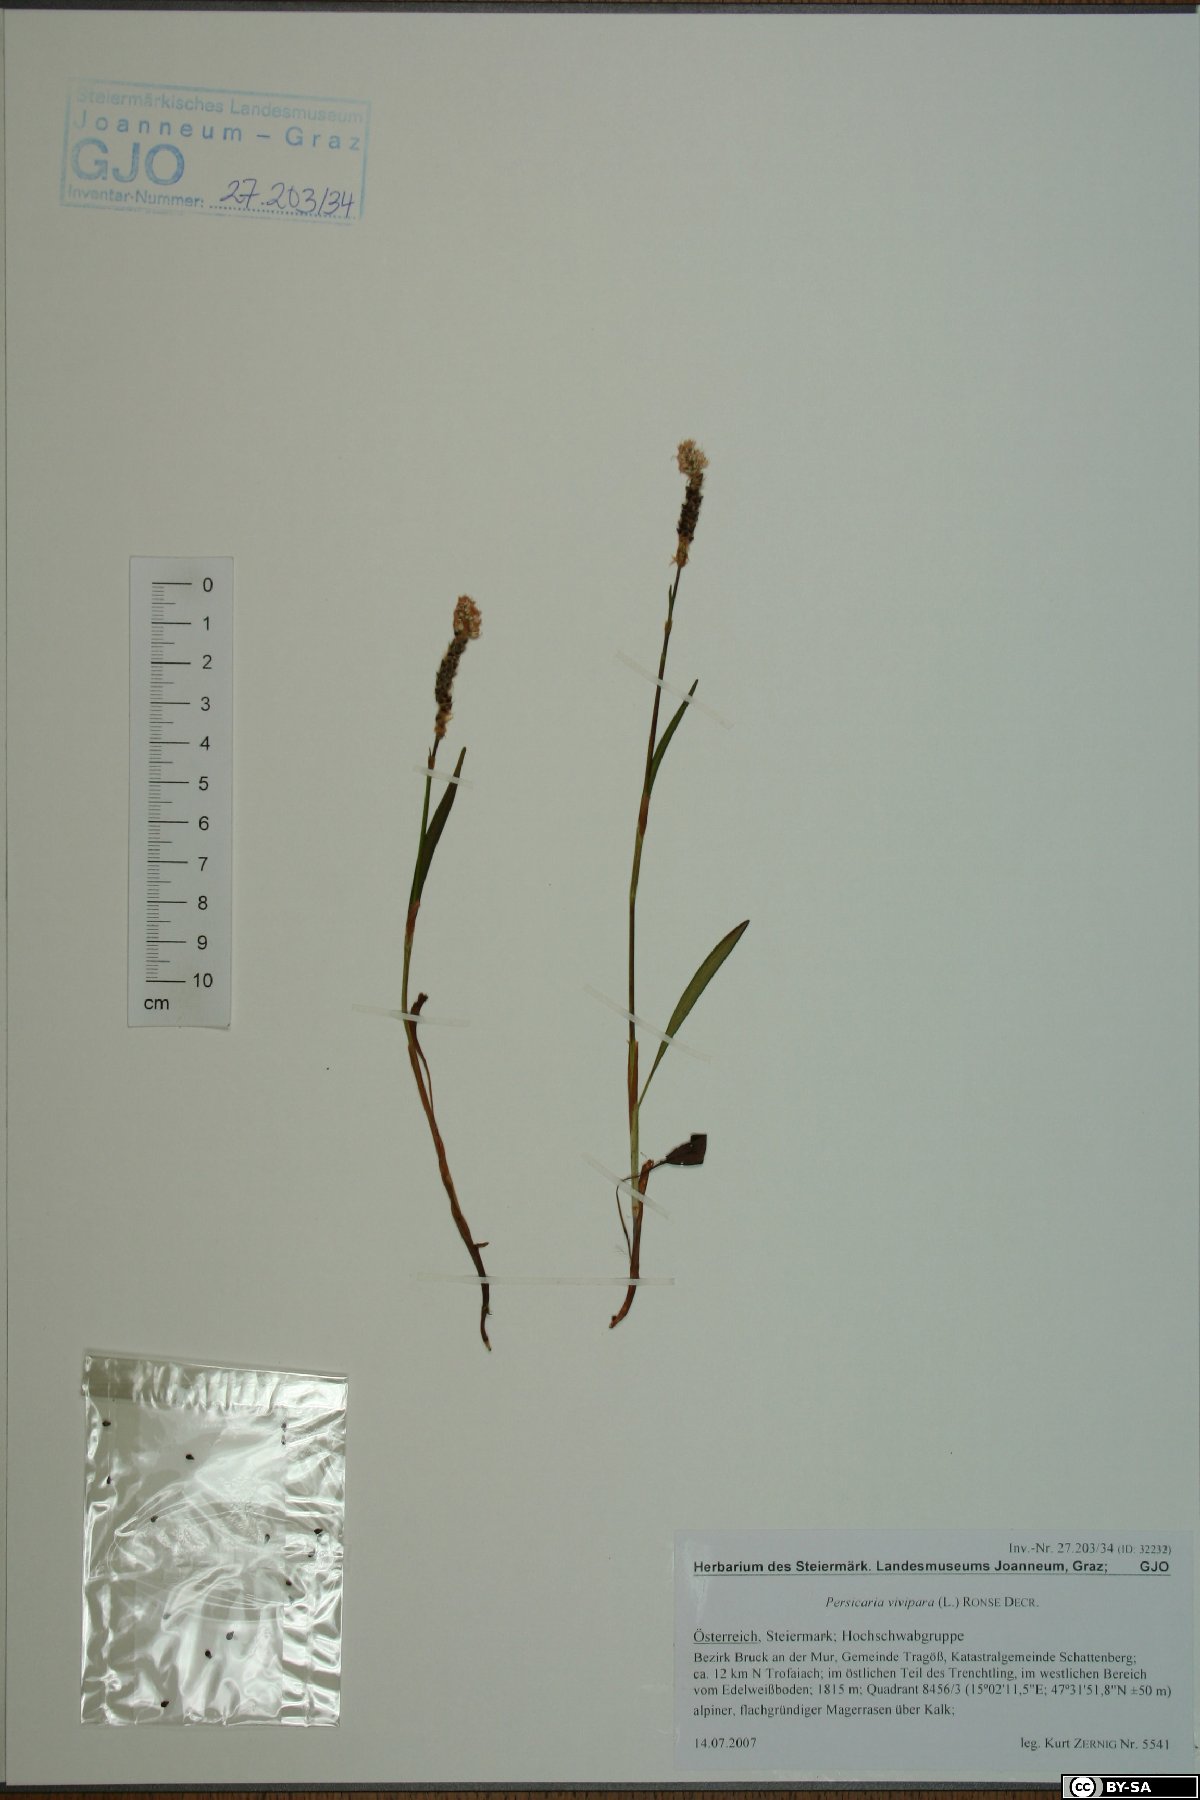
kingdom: Plantae
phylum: Tracheophyta
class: Magnoliopsida
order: Caryophyllales
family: Polygonaceae
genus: Bistorta
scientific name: Bistorta vivipara
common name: Alpine bistort
